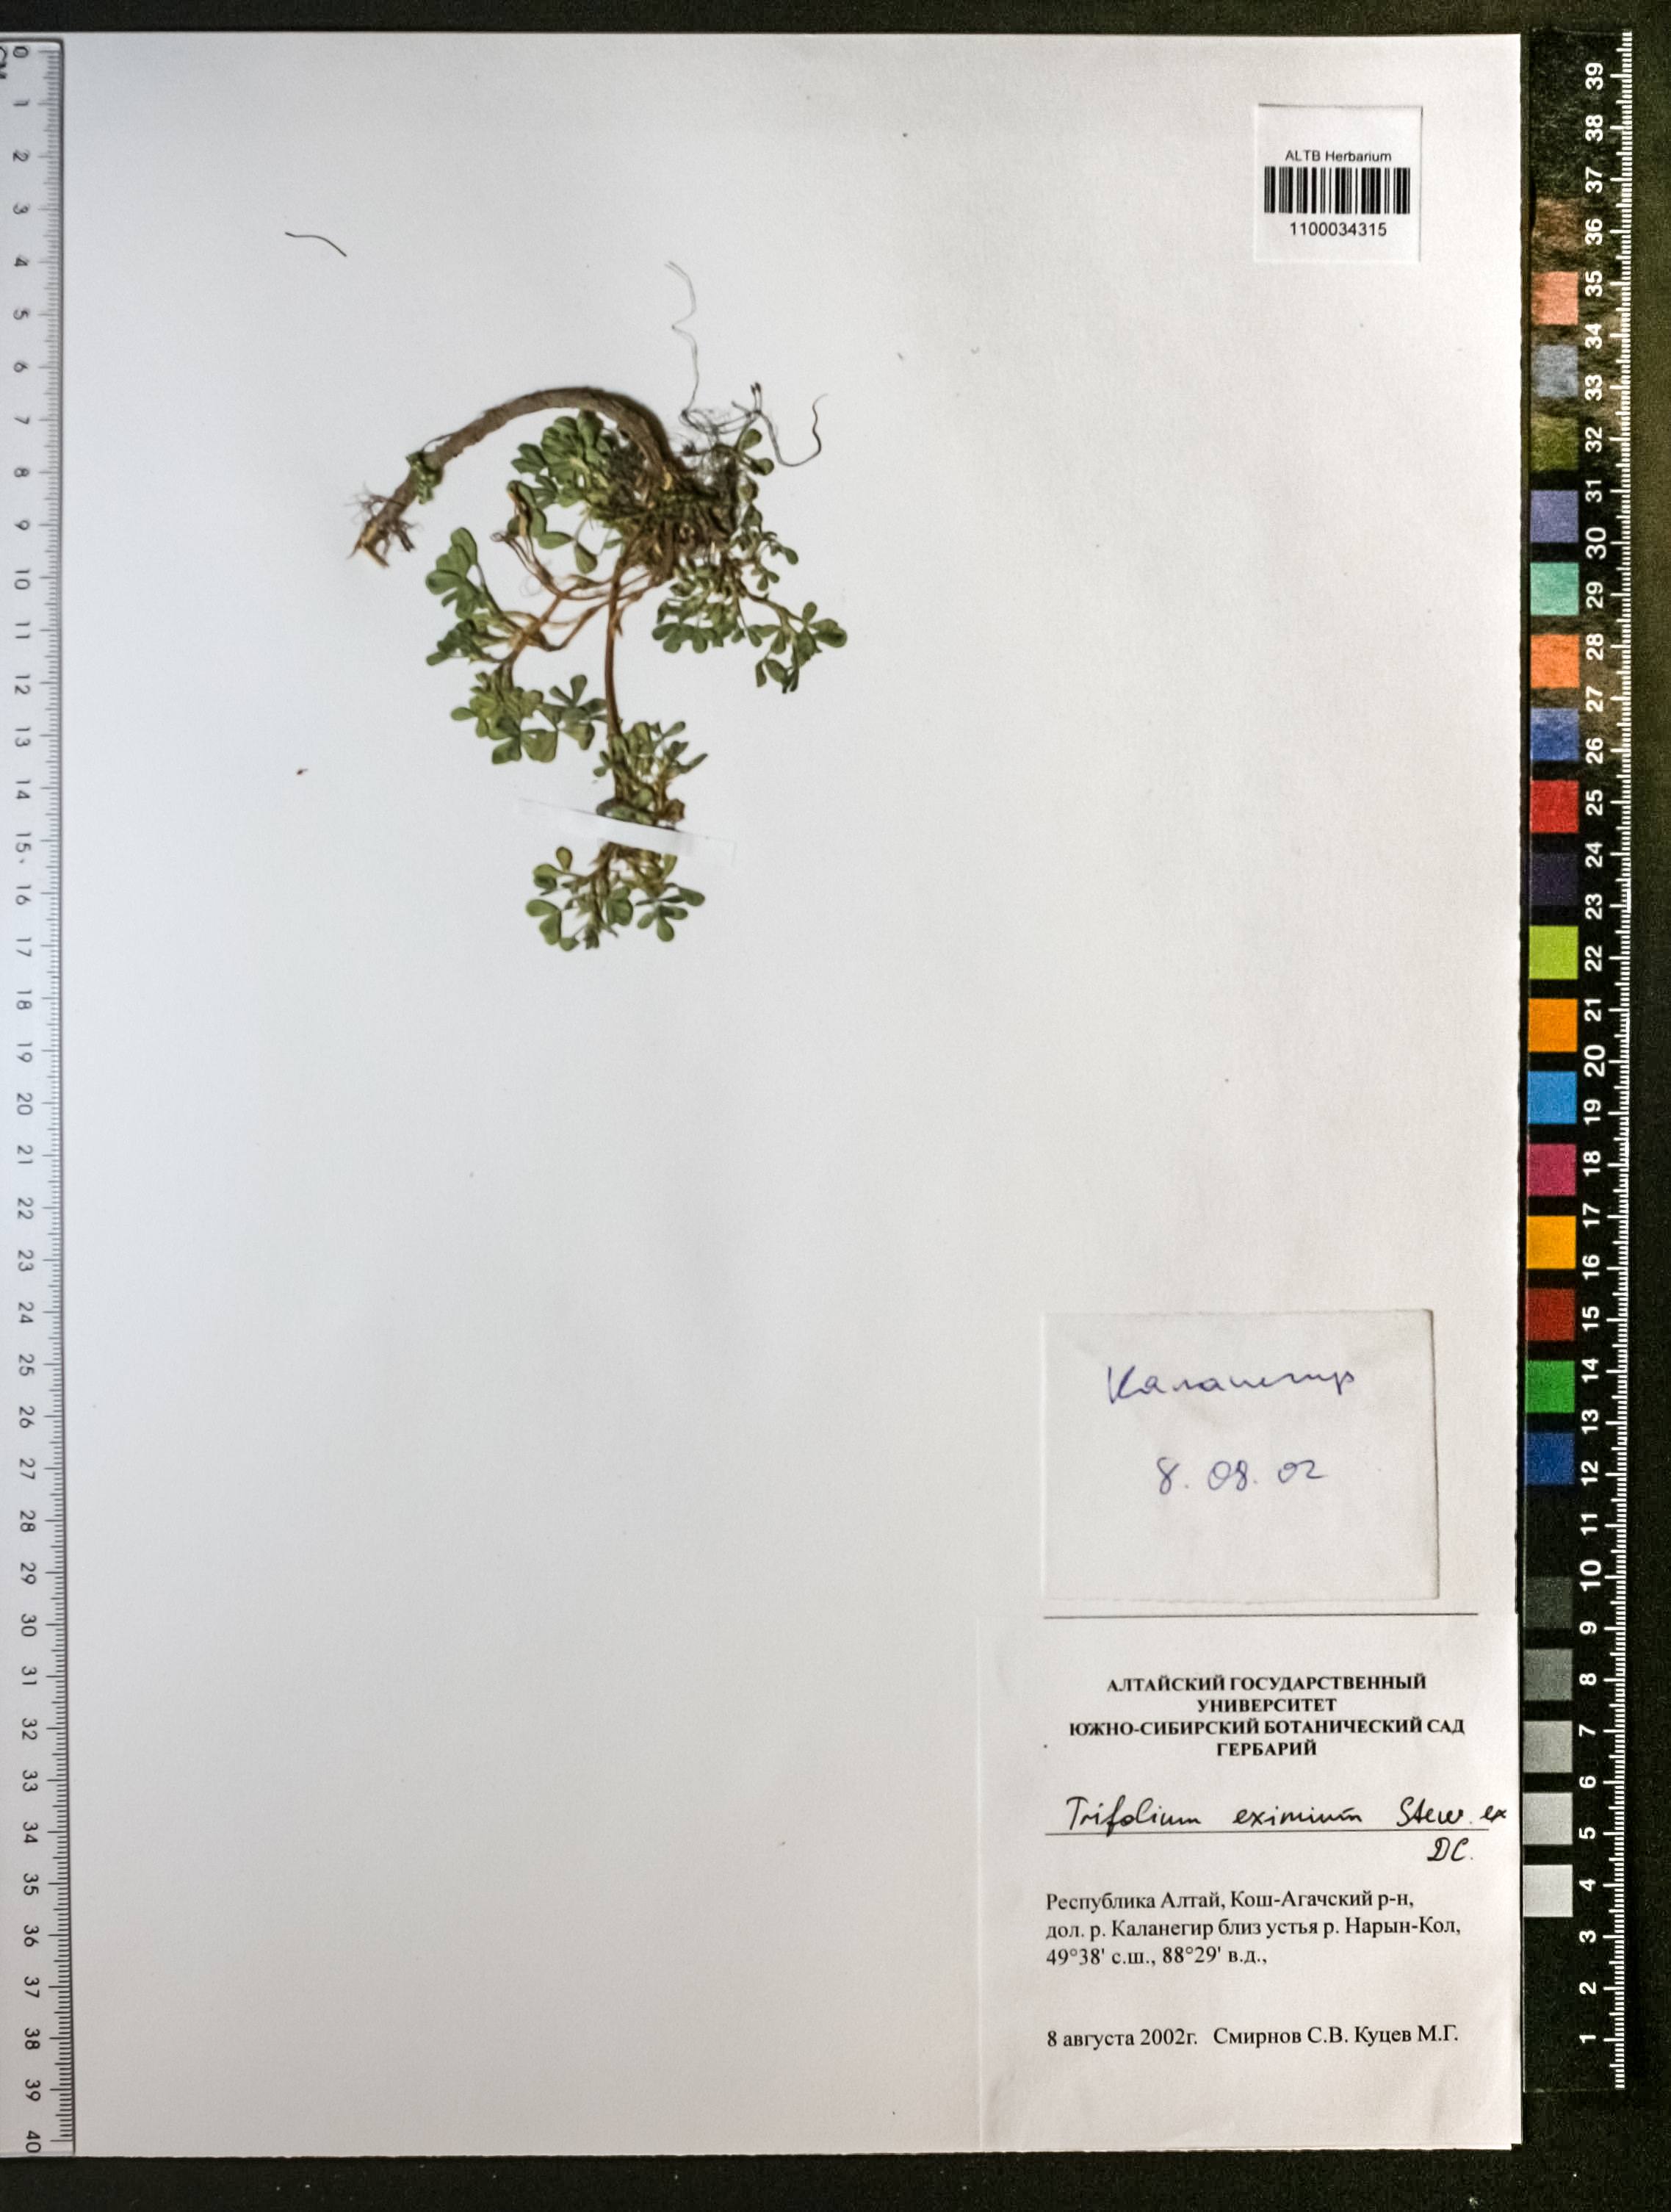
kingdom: Plantae
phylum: Tracheophyta
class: Magnoliopsida
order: Fabales
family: Fabaceae
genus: Trifolium
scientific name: Trifolium eximium
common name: Excellent clover
